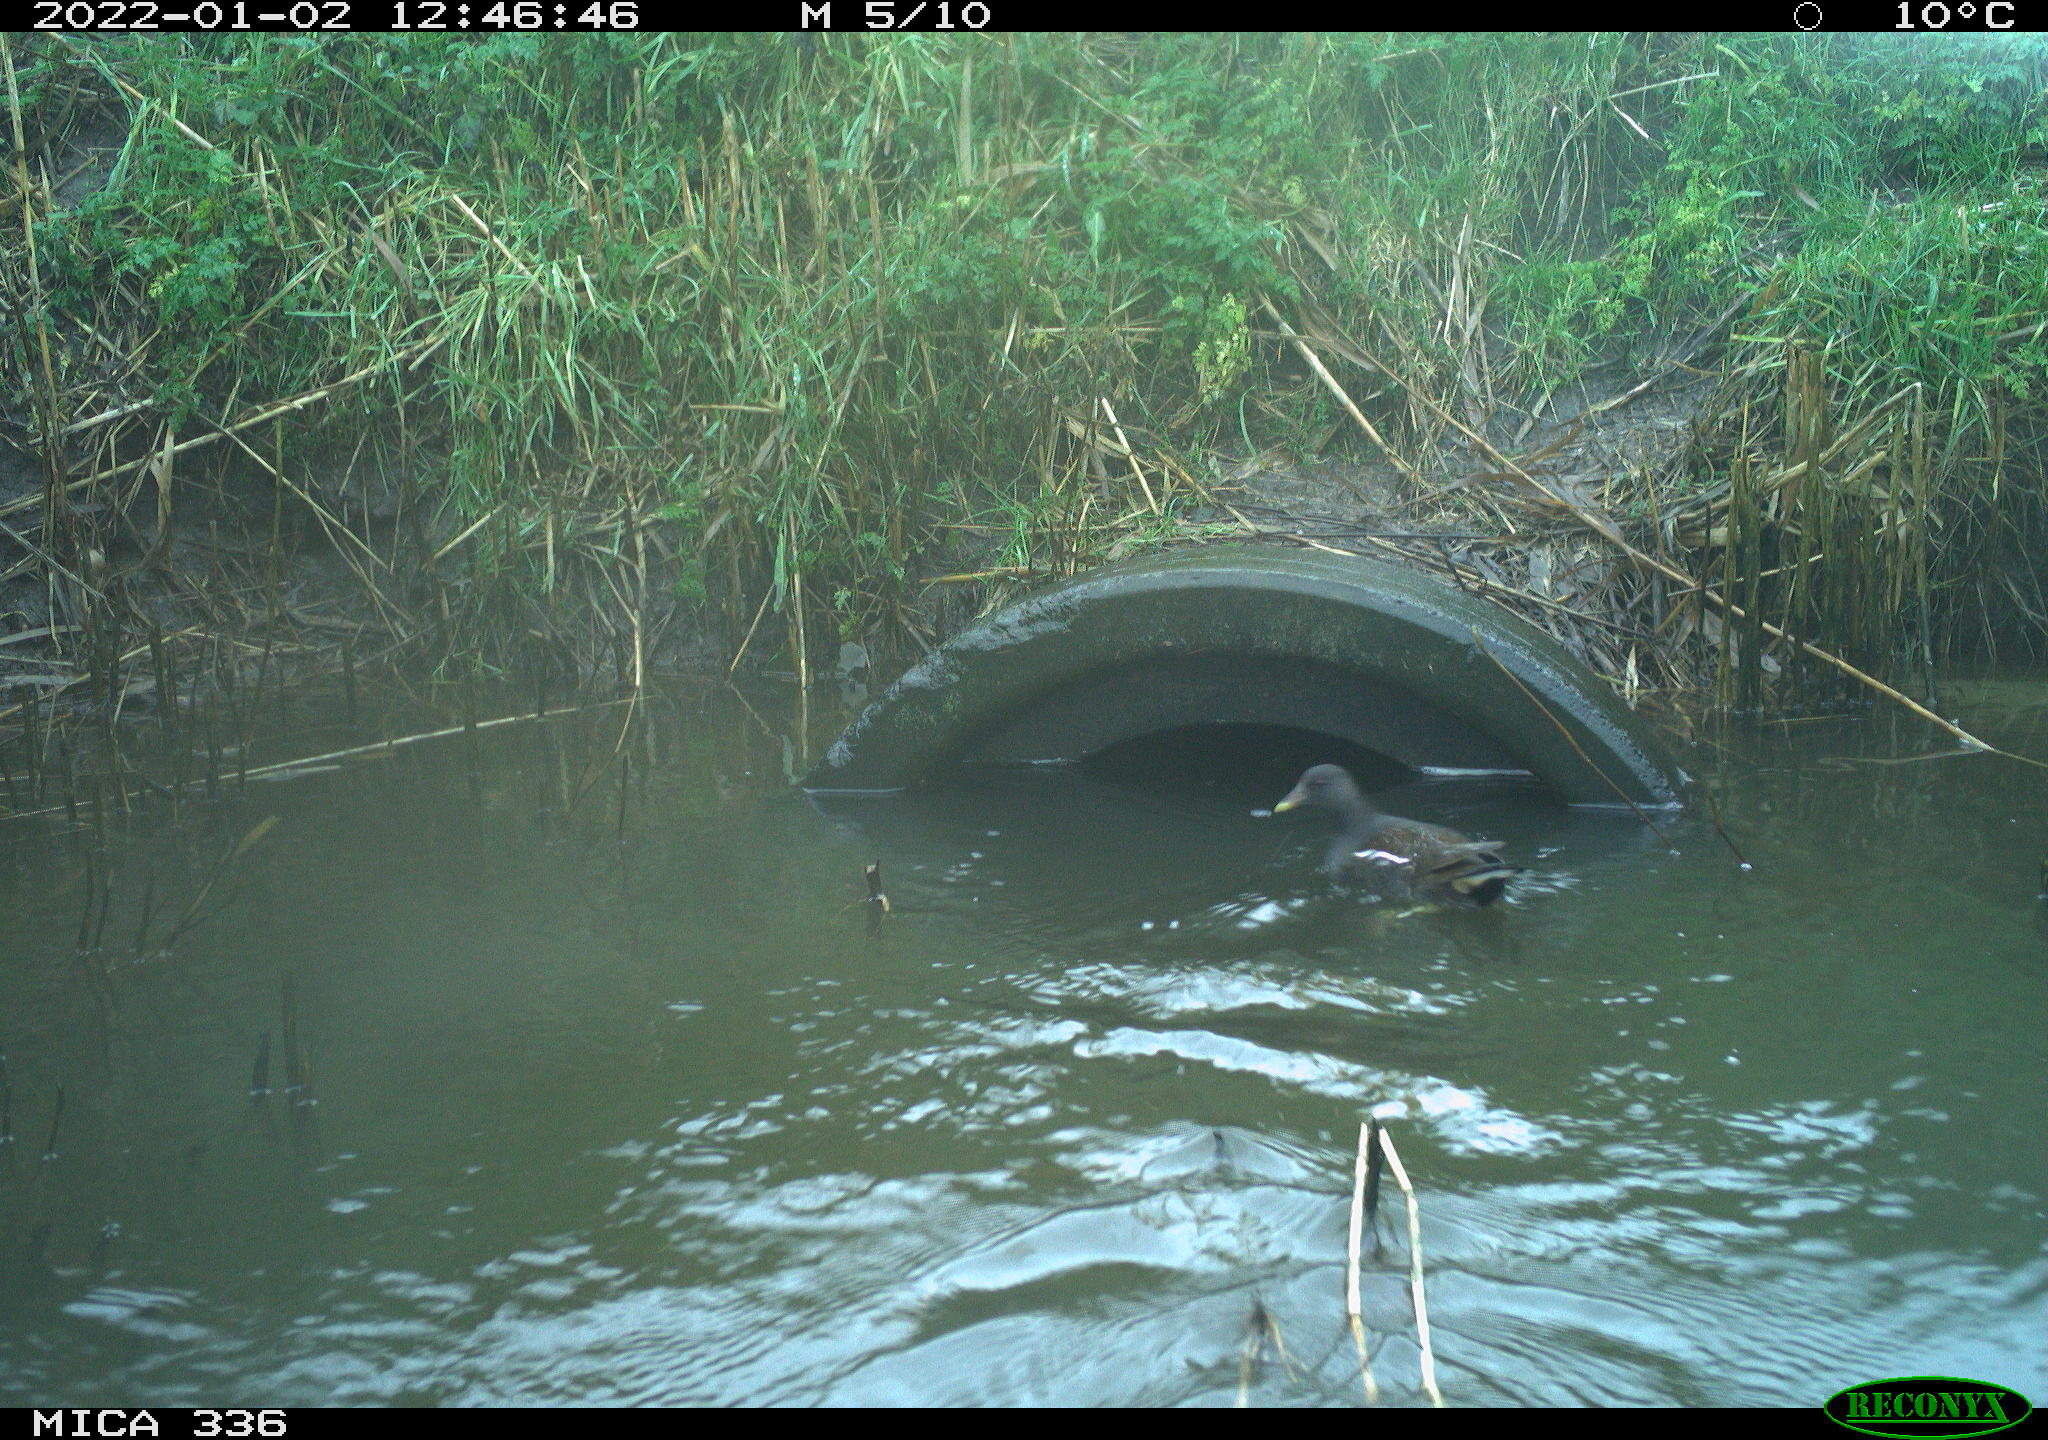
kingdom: Animalia
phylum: Chordata
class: Aves
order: Gruiformes
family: Rallidae
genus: Gallinula
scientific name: Gallinula chloropus
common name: Common moorhen
